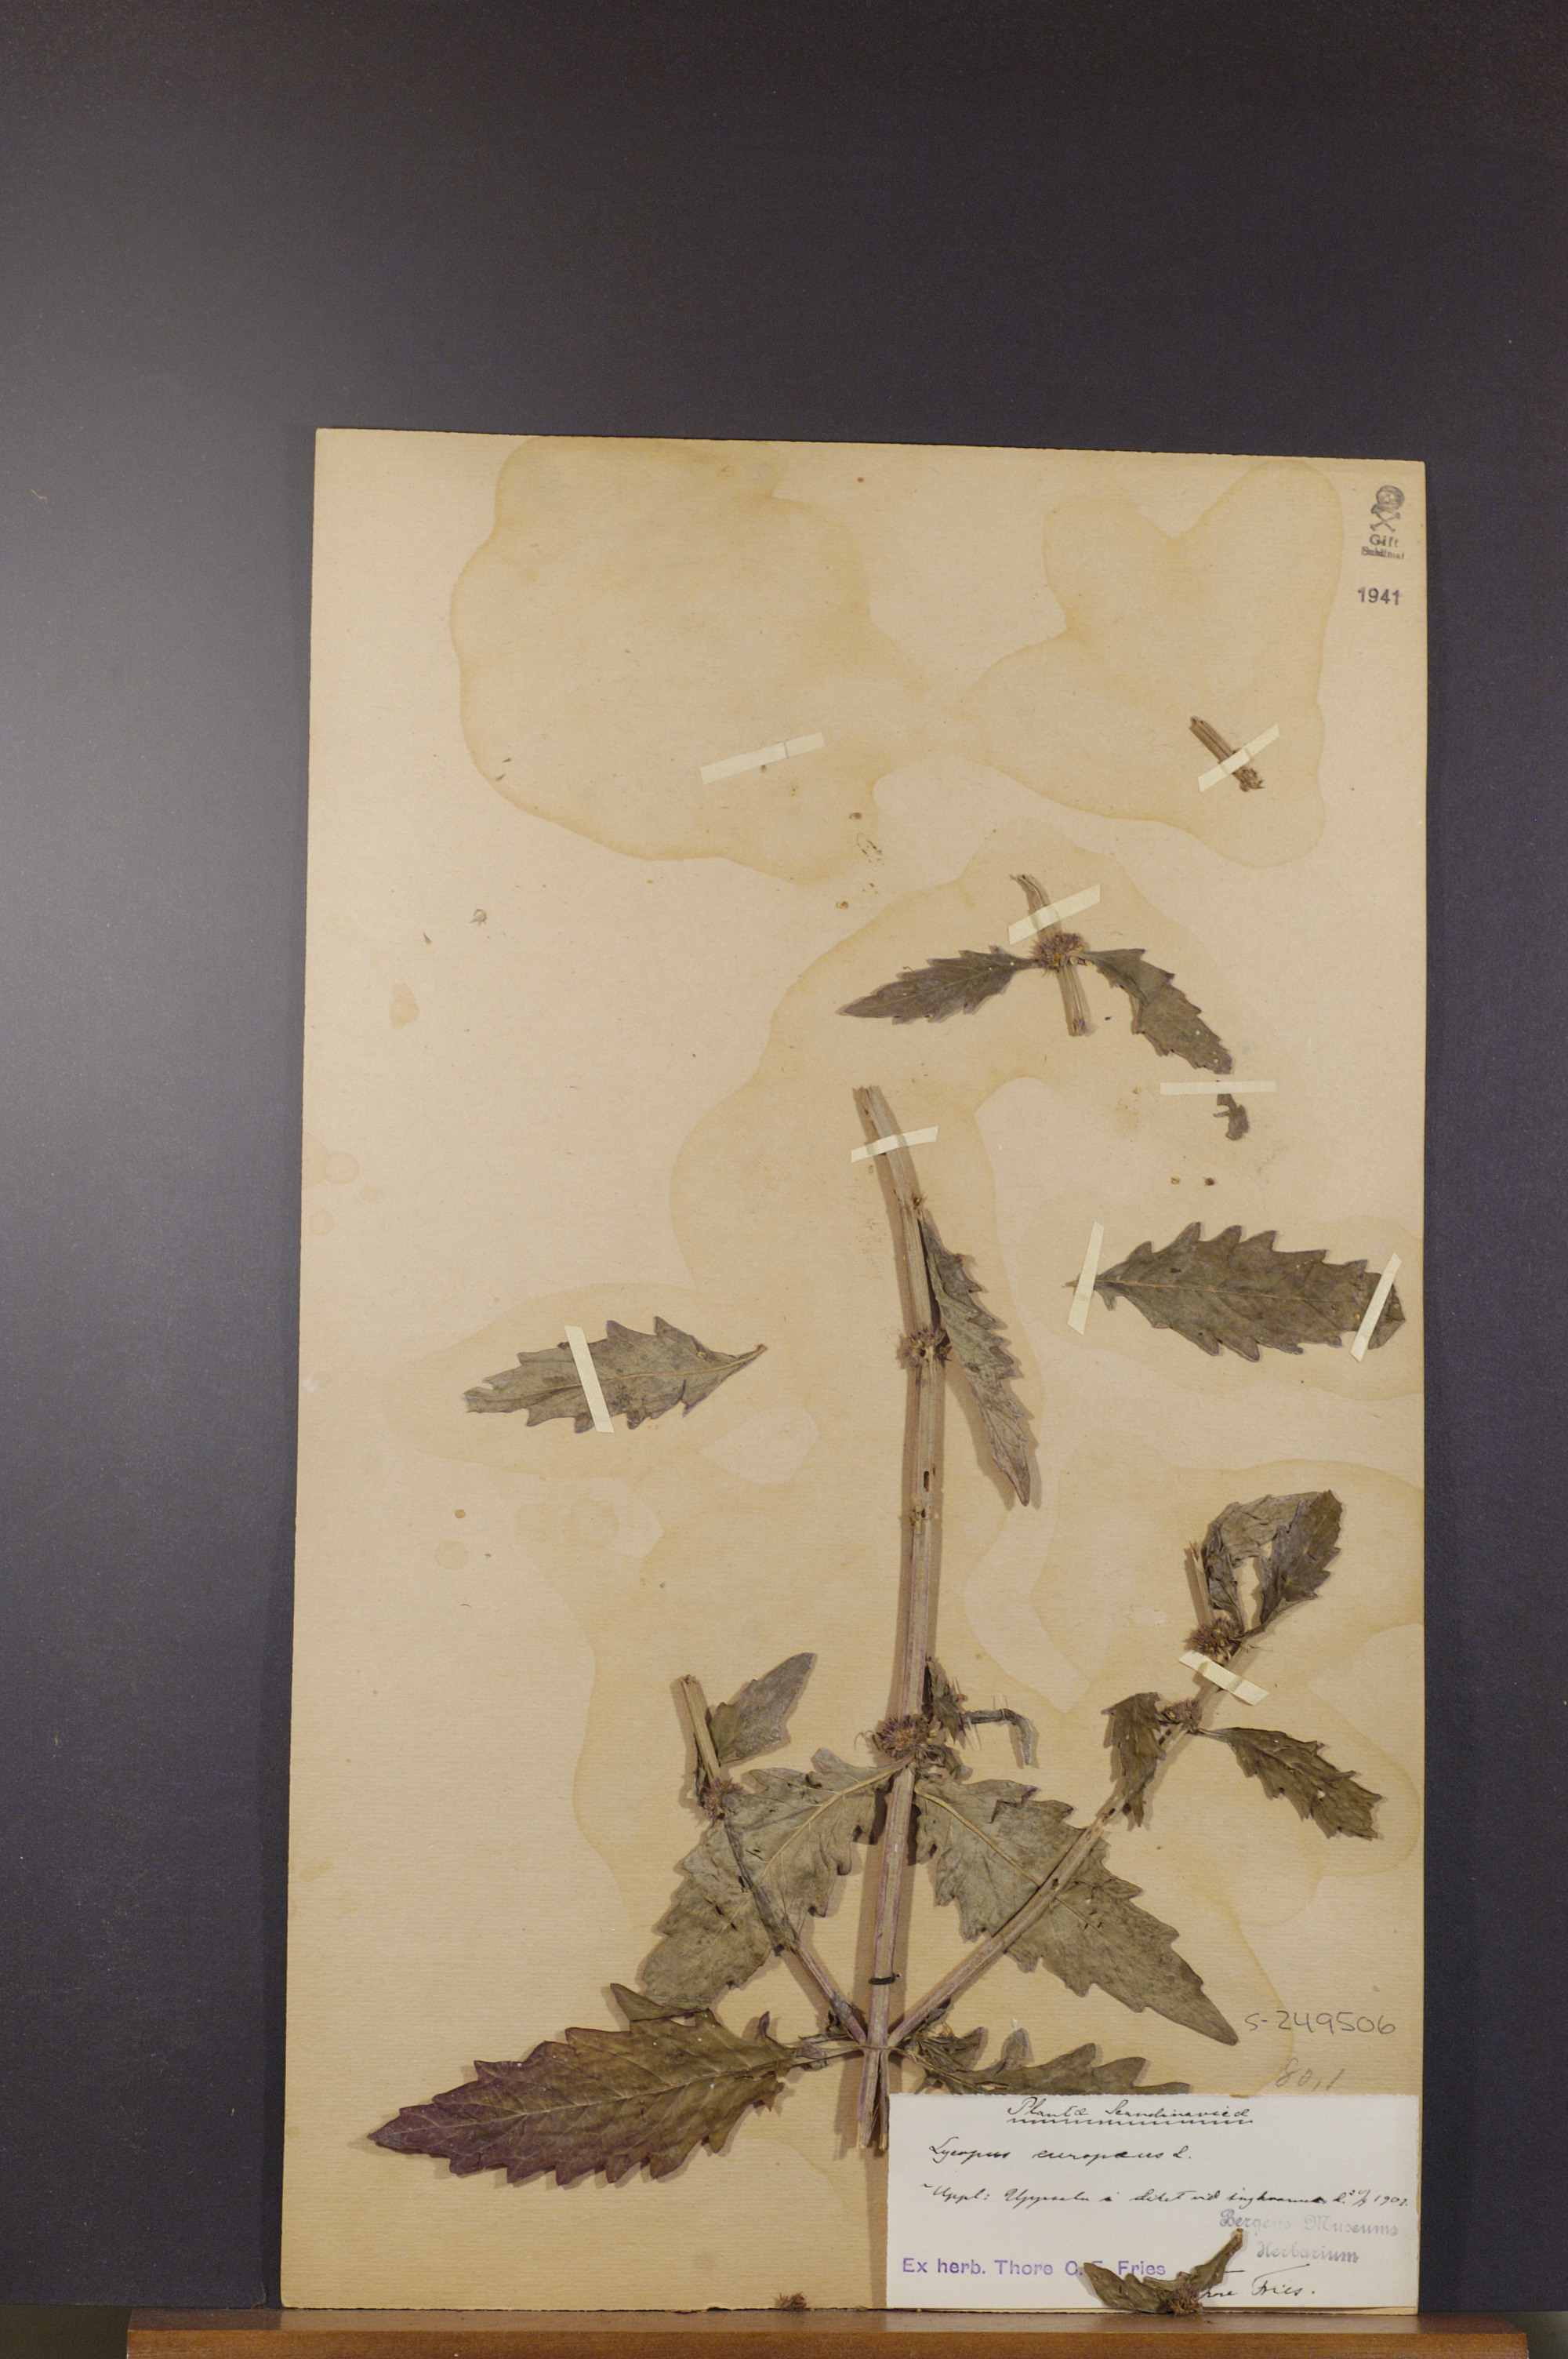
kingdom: Plantae
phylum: Tracheophyta
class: Magnoliopsida
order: Lamiales
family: Lamiaceae
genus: Lycopus
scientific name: Lycopus europaeus
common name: European bugleweed
